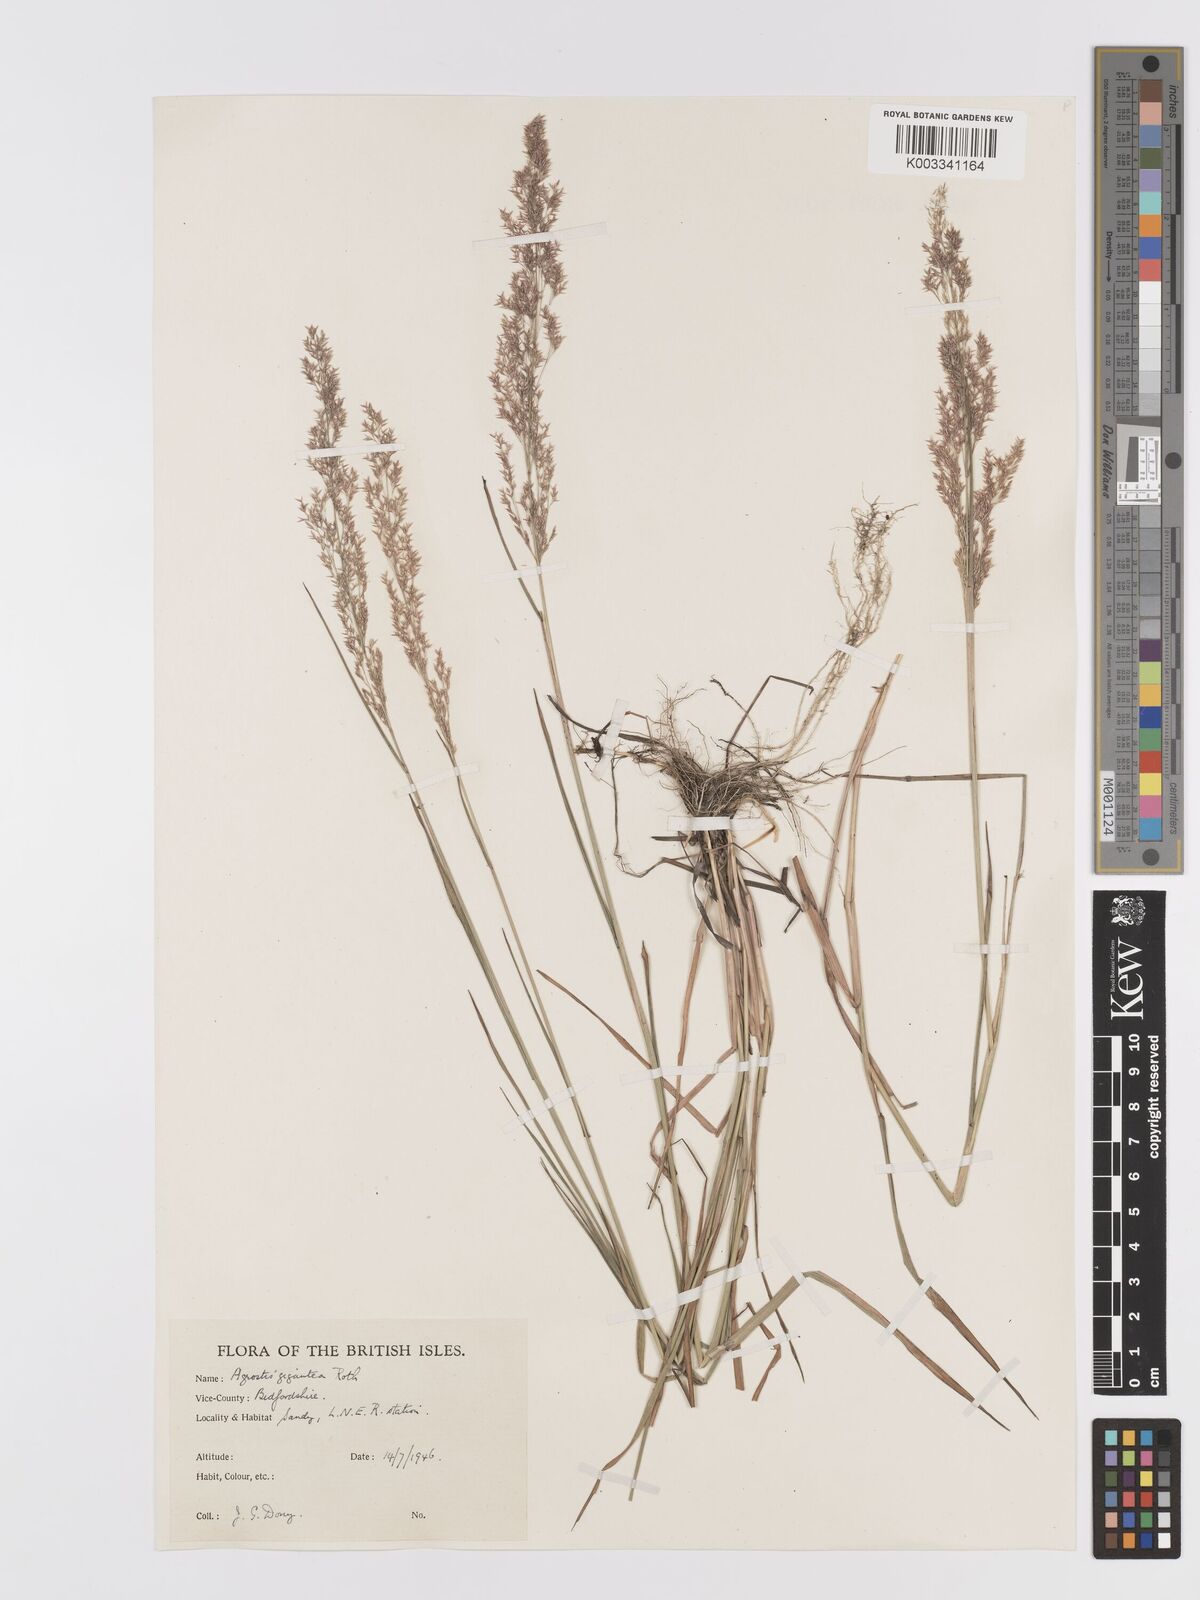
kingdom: Plantae
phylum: Tracheophyta
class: Liliopsida
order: Poales
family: Poaceae
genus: Agrostis
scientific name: Agrostis gigantea
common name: Black bent
